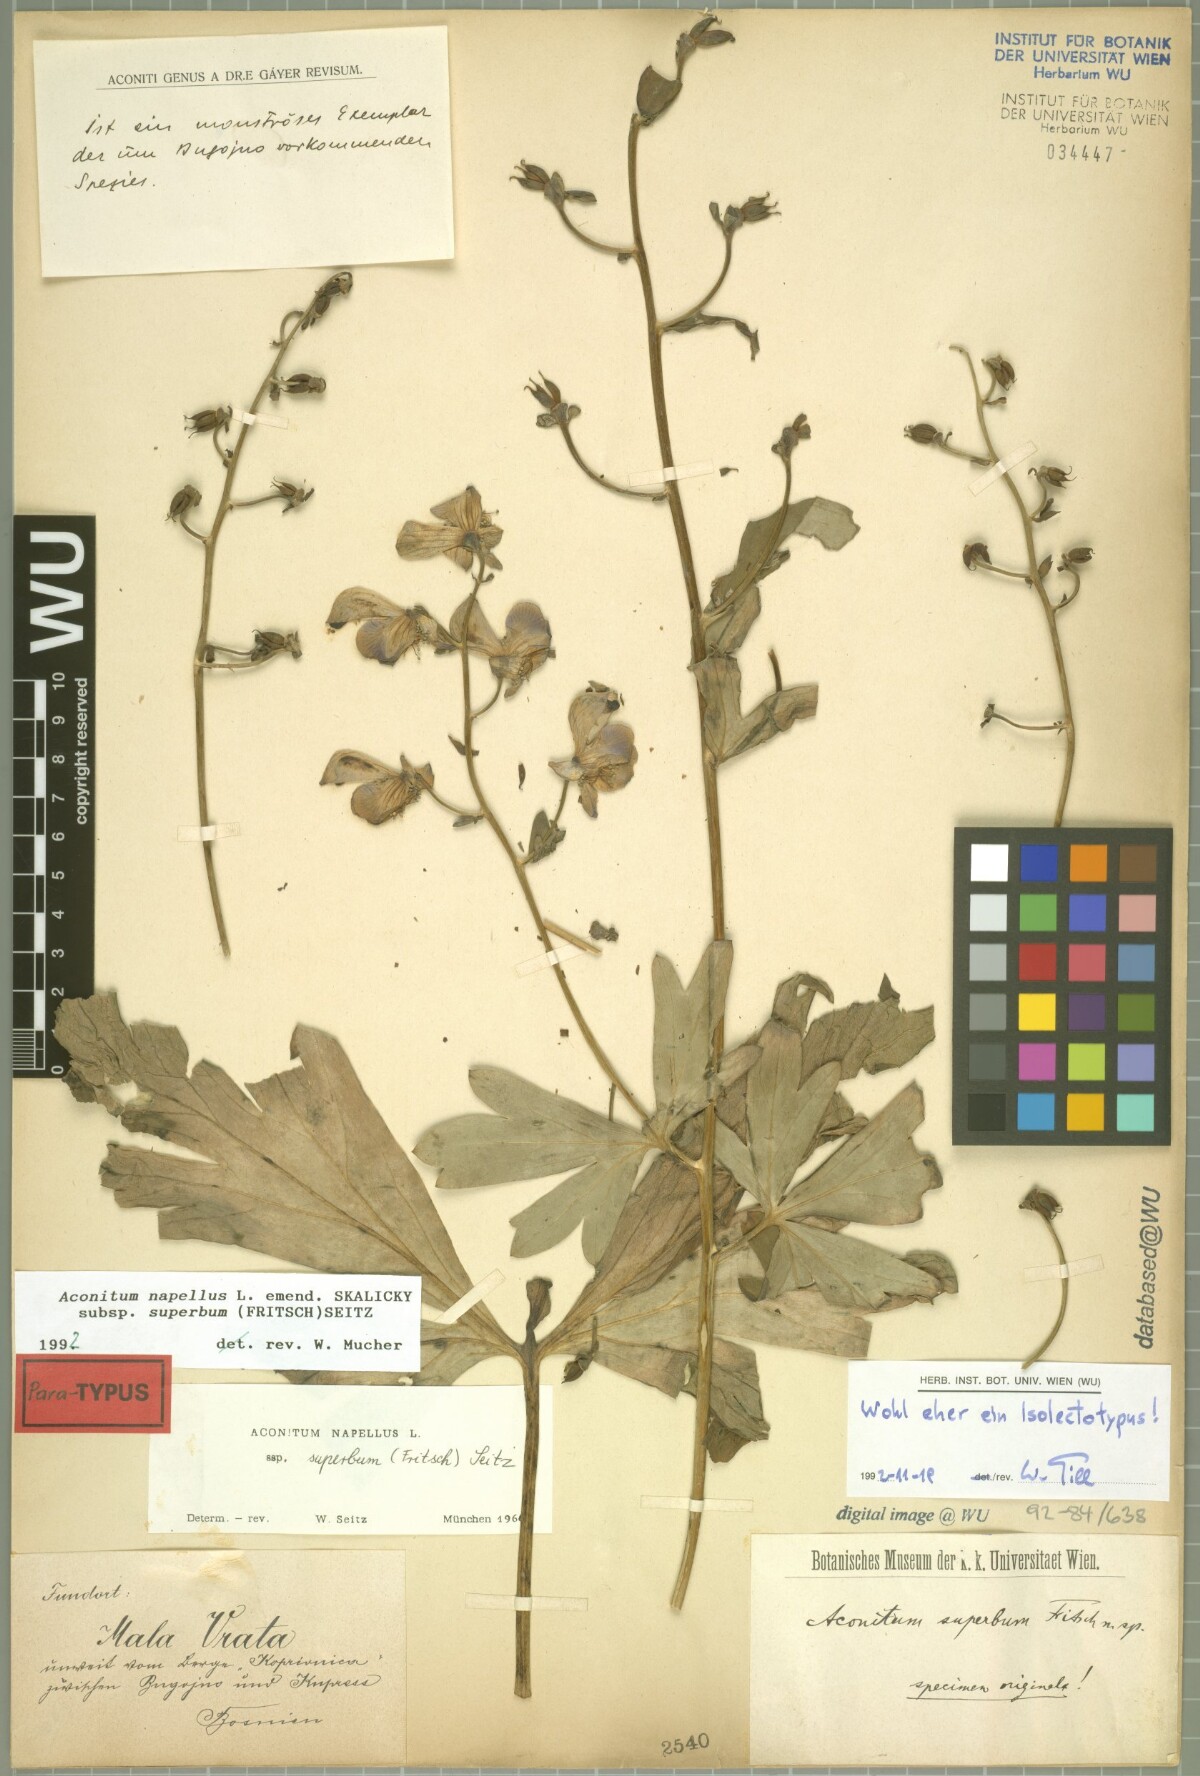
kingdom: Plantae
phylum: Tracheophyta
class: Magnoliopsida
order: Ranunculales
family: Ranunculaceae
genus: Aconitum
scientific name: Aconitum superbum
